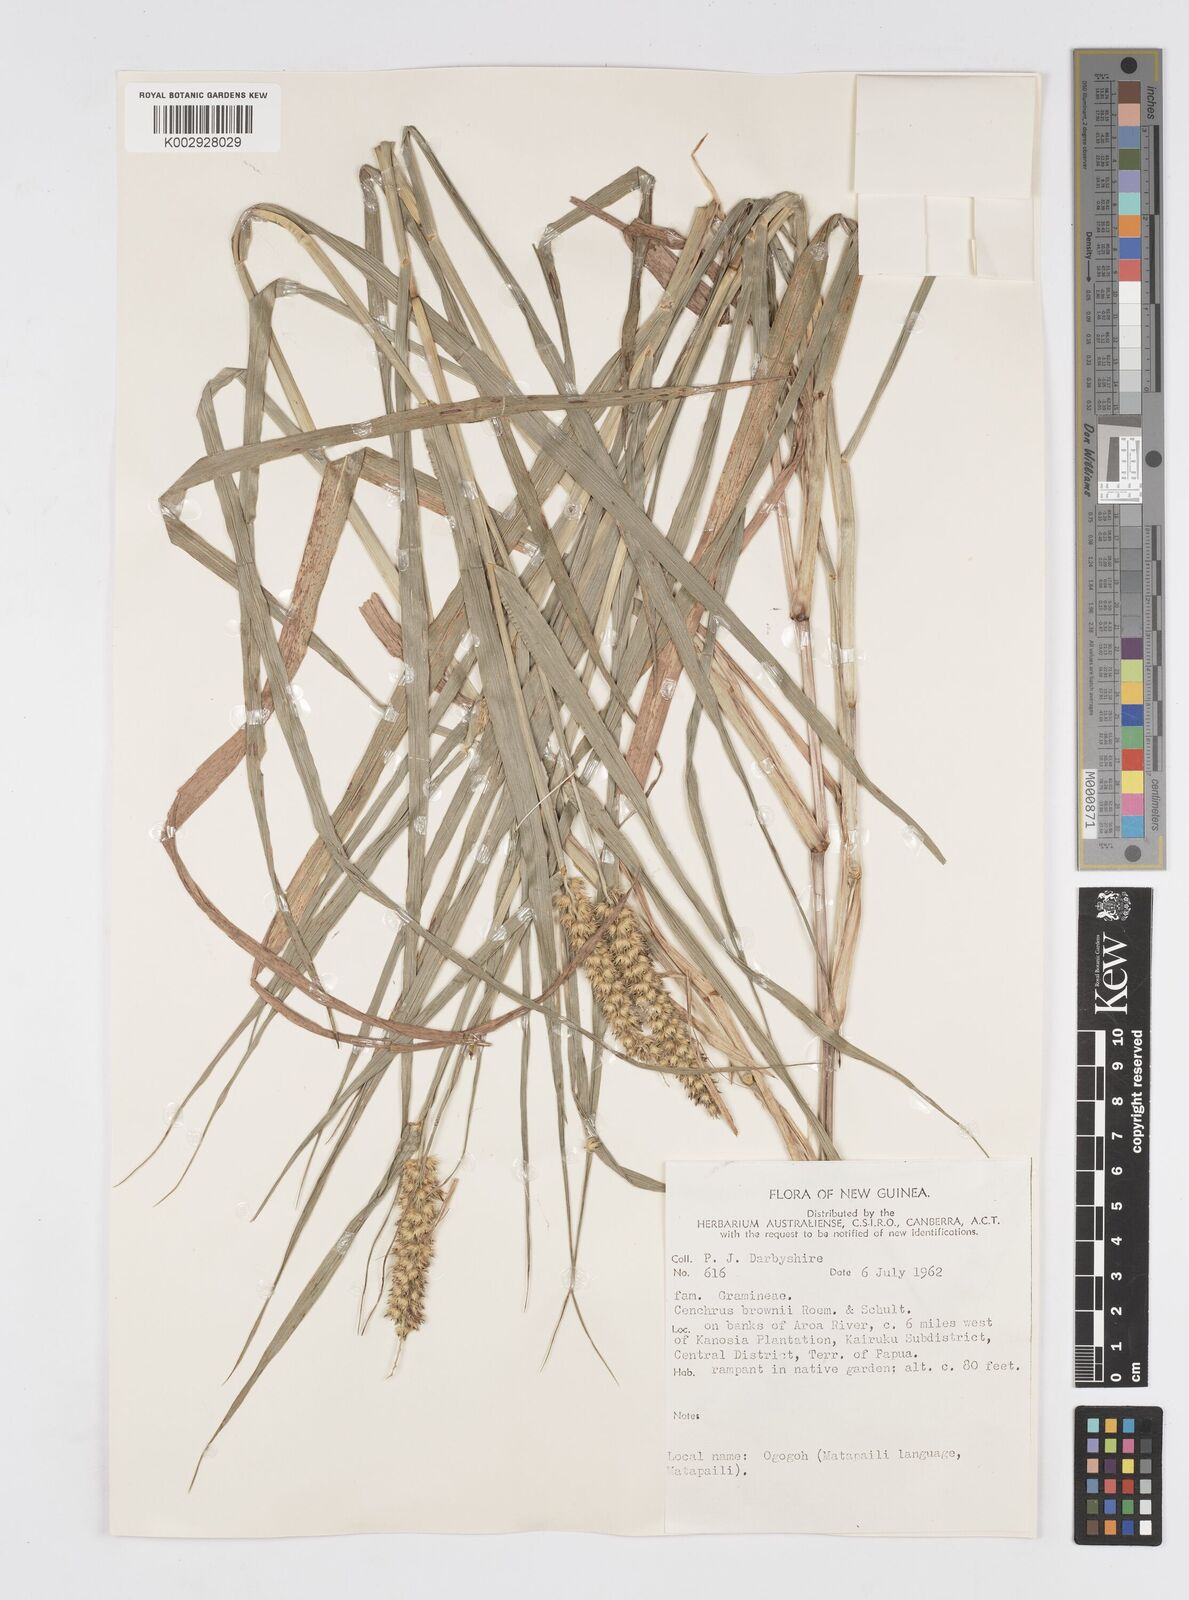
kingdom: Plantae
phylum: Tracheophyta
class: Liliopsida
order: Poales
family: Poaceae
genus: Cenchrus
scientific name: Cenchrus brownii
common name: Slim-bristle sandbur
